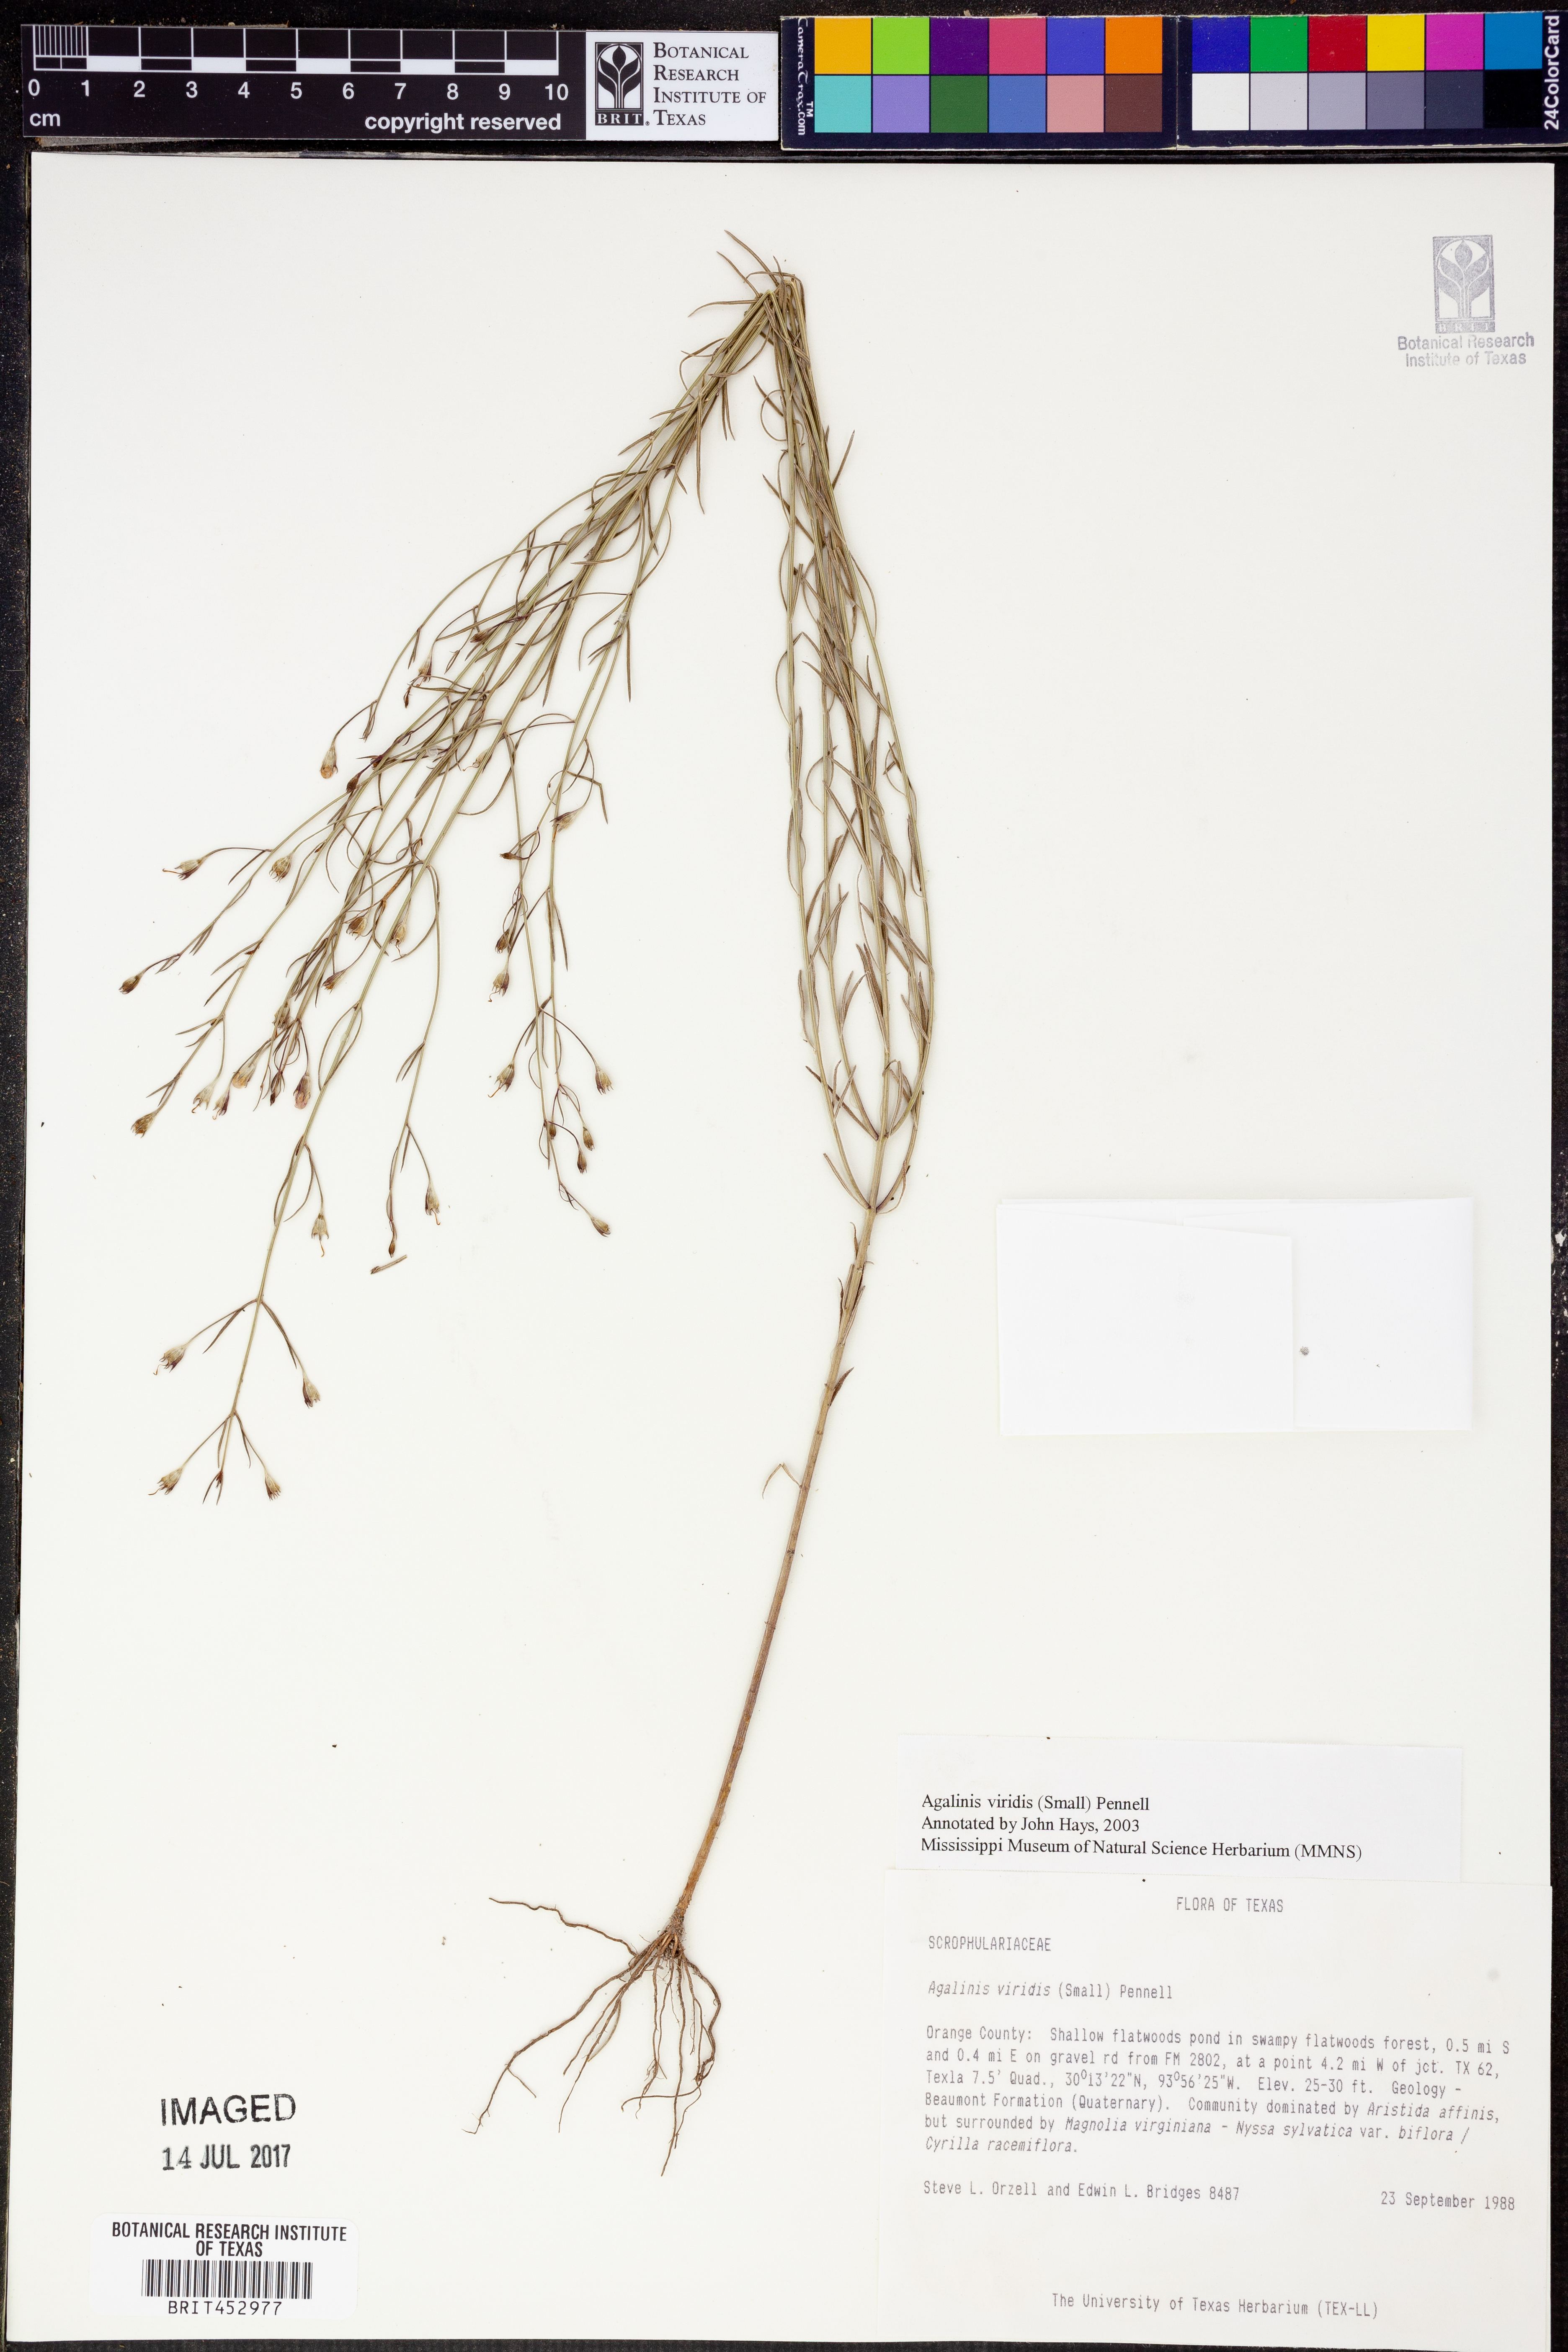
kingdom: Plantae
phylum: Tracheophyta
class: Magnoliopsida
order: Lamiales
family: Orobanchaceae
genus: Agalinis
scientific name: Agalinis viridis
